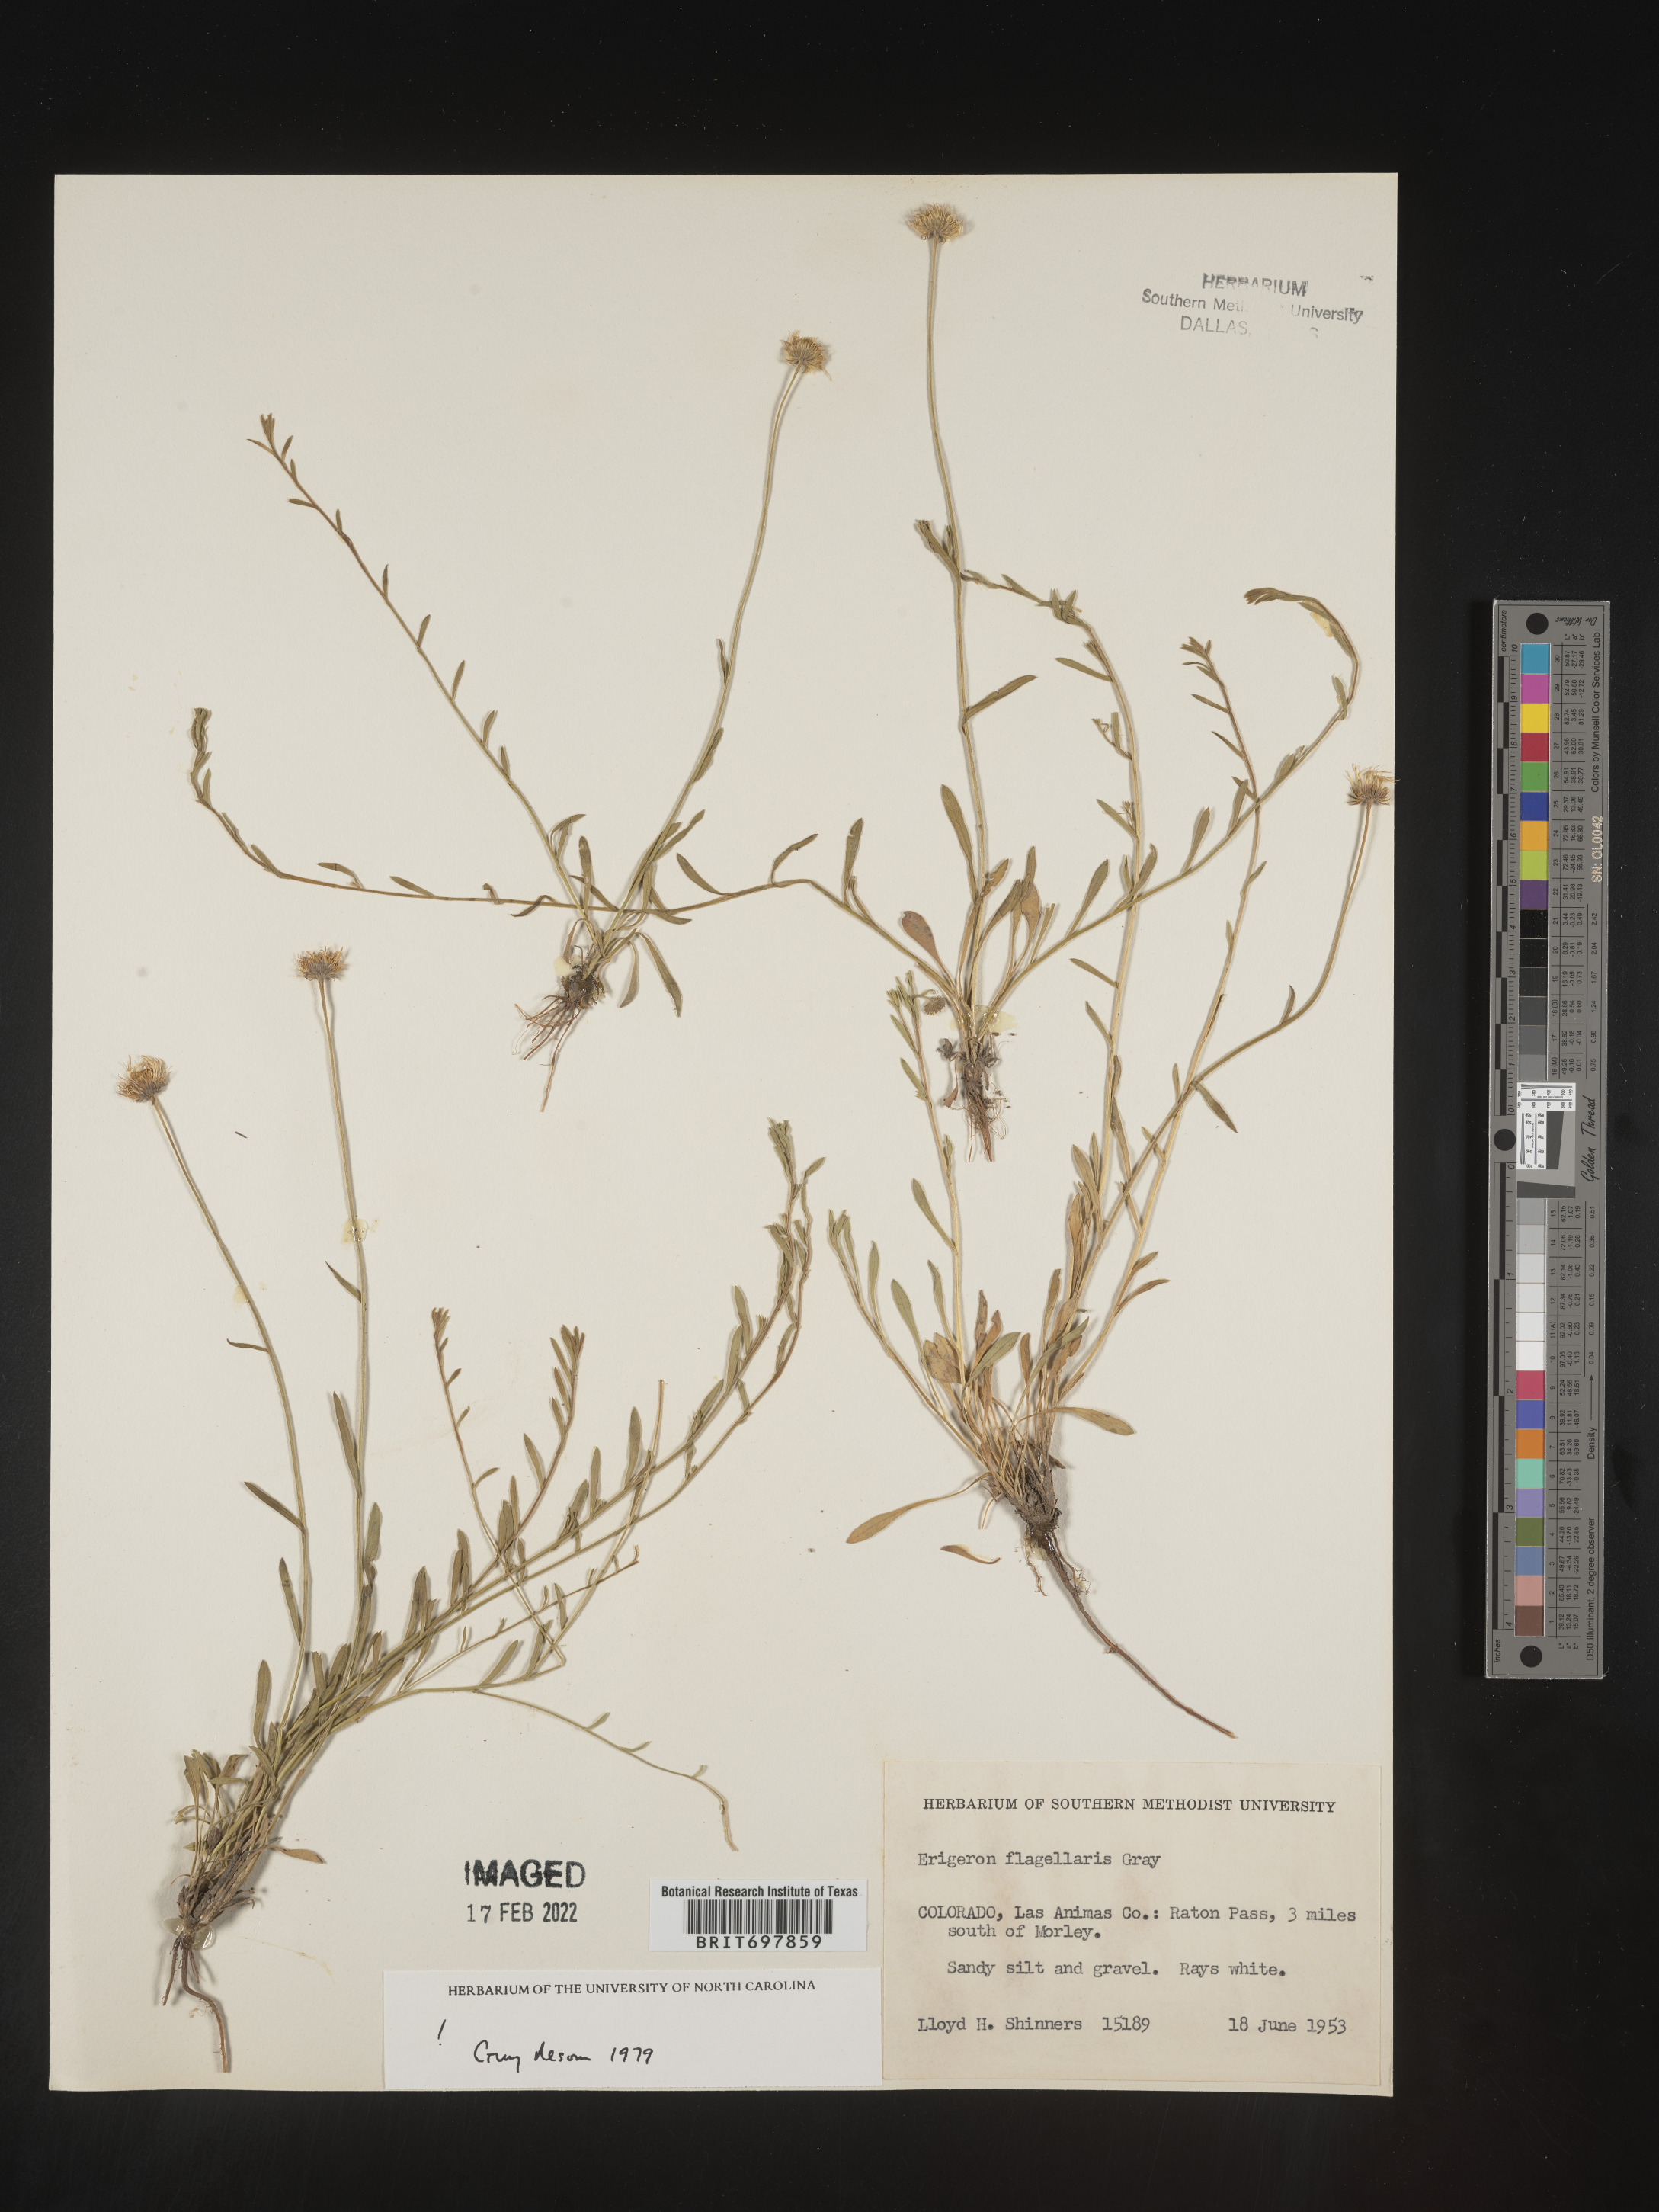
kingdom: Plantae
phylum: Tracheophyta
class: Magnoliopsida
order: Asterales
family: Asteraceae
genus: Erigeron
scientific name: Erigeron flagellaris
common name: Running fleabane
